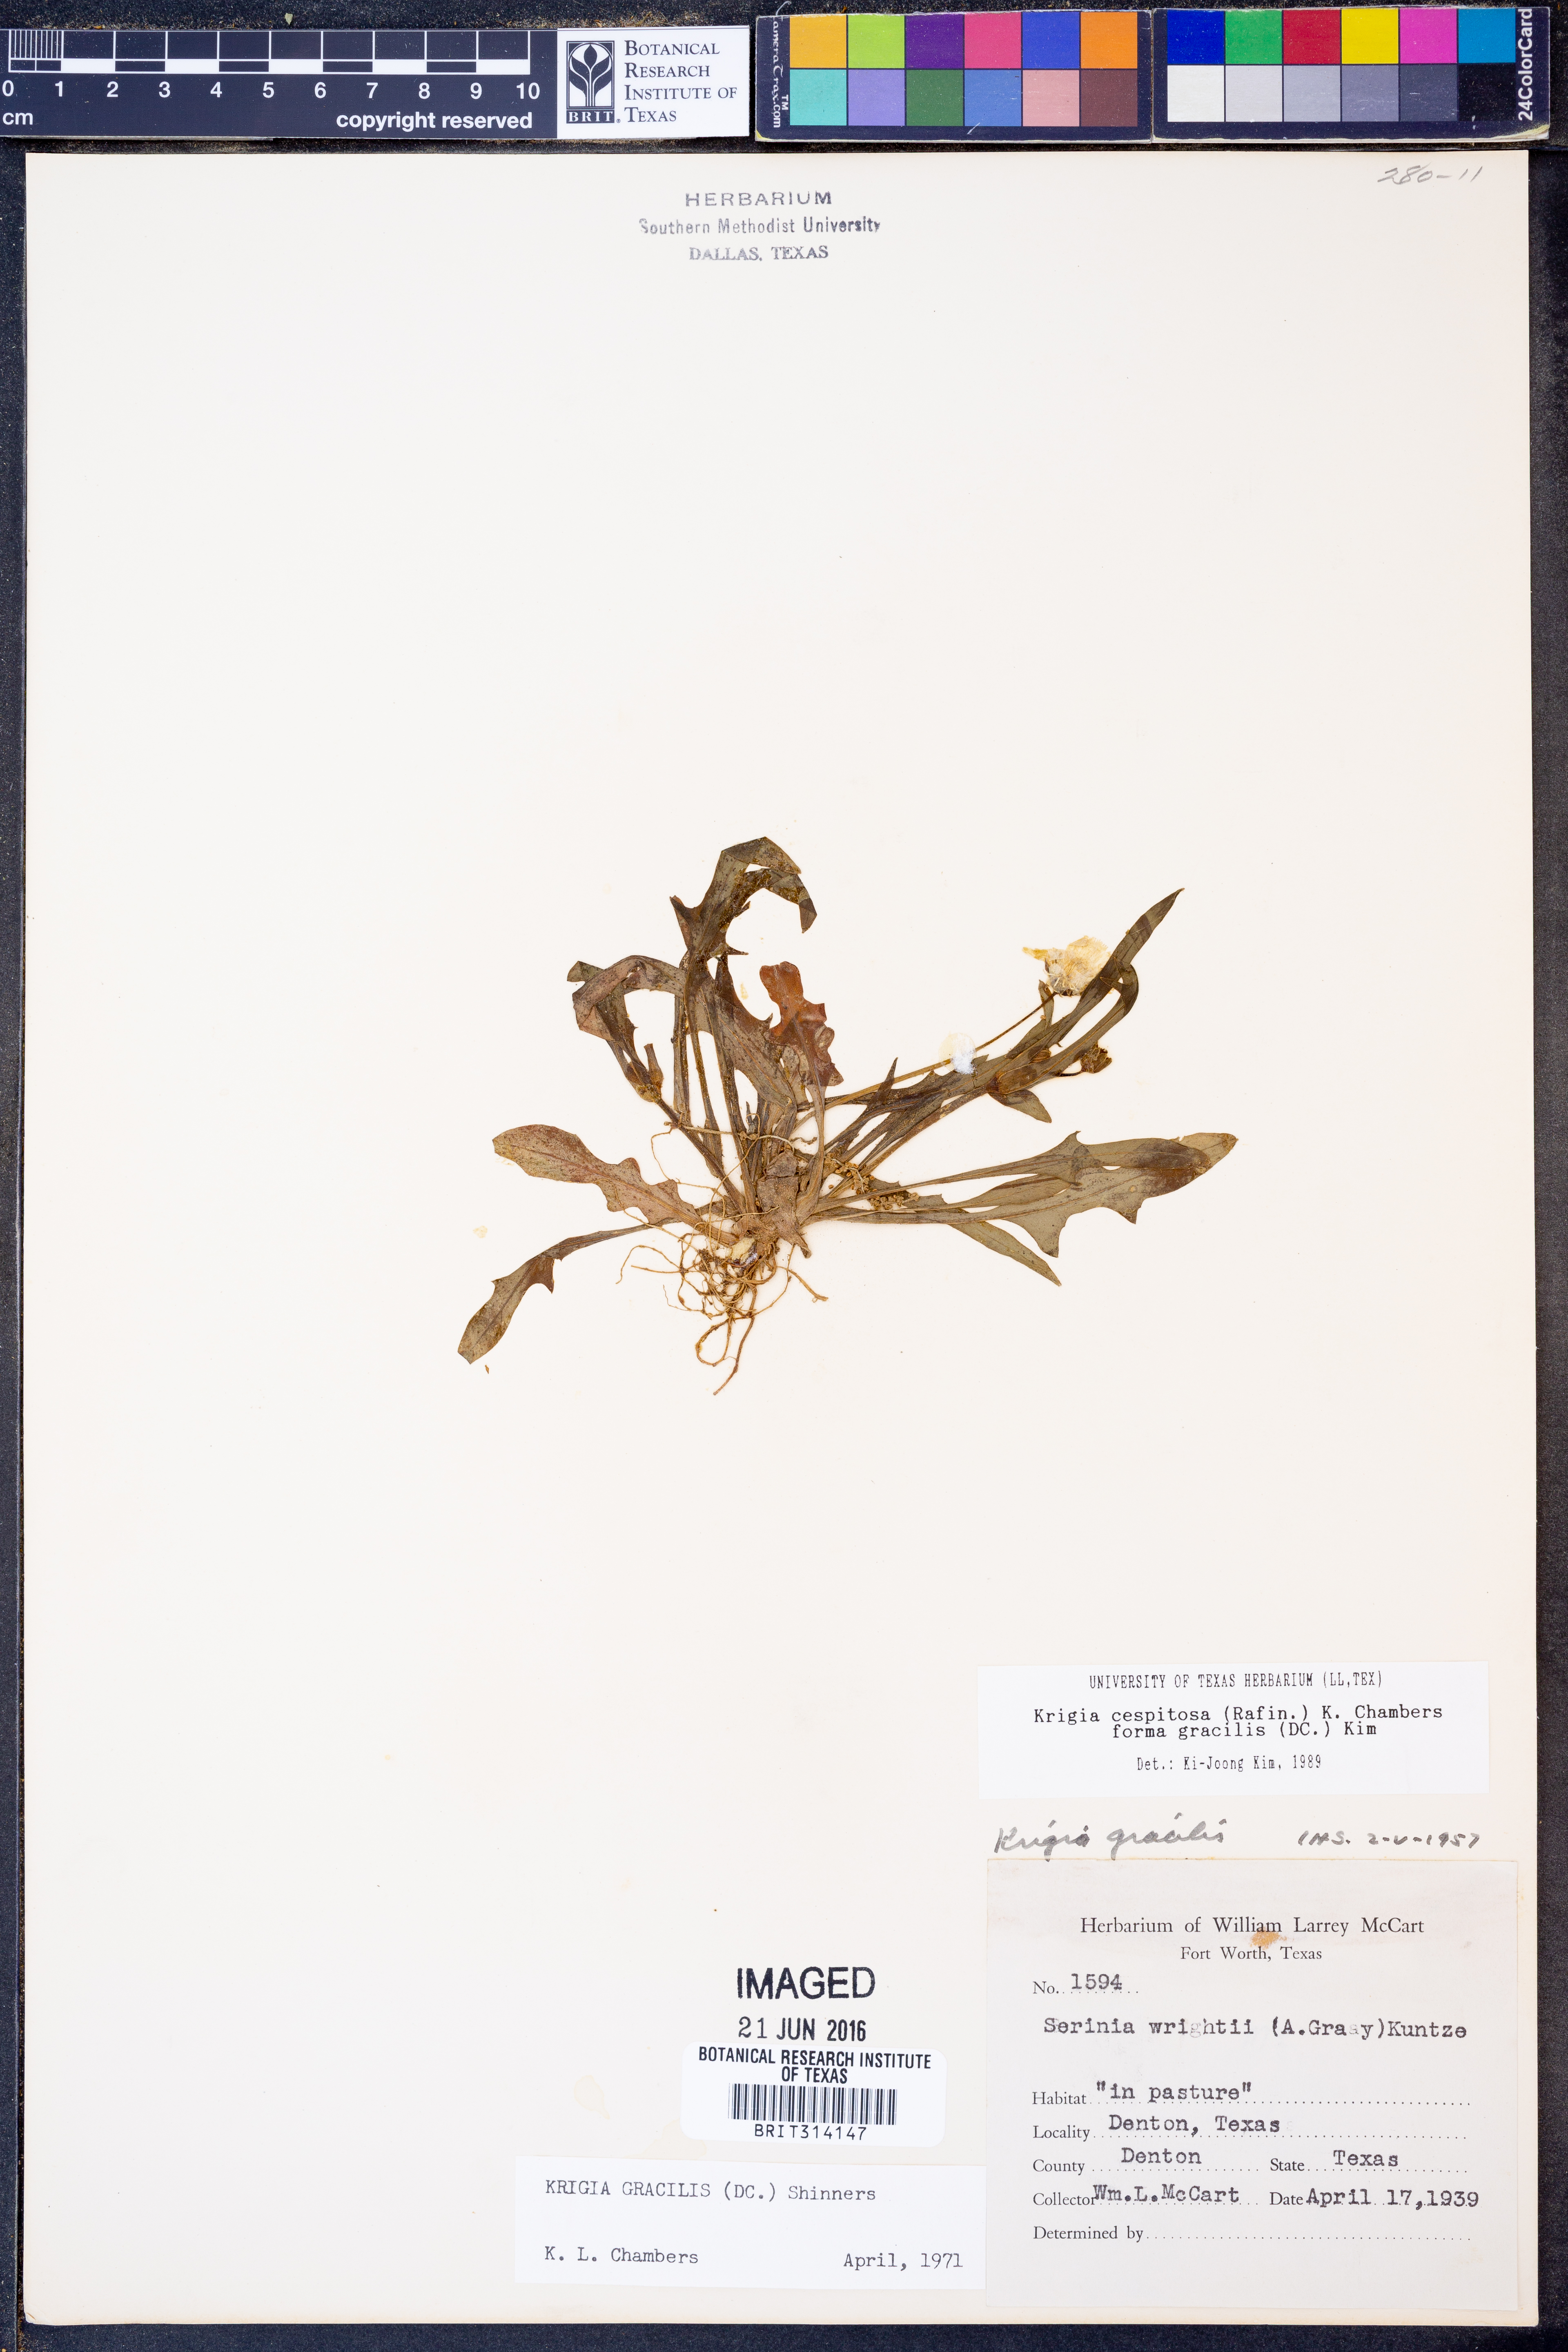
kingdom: Plantae
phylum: Tracheophyta
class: Magnoliopsida
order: Asterales
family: Asteraceae
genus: Krigia
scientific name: Krigia cespitosa
